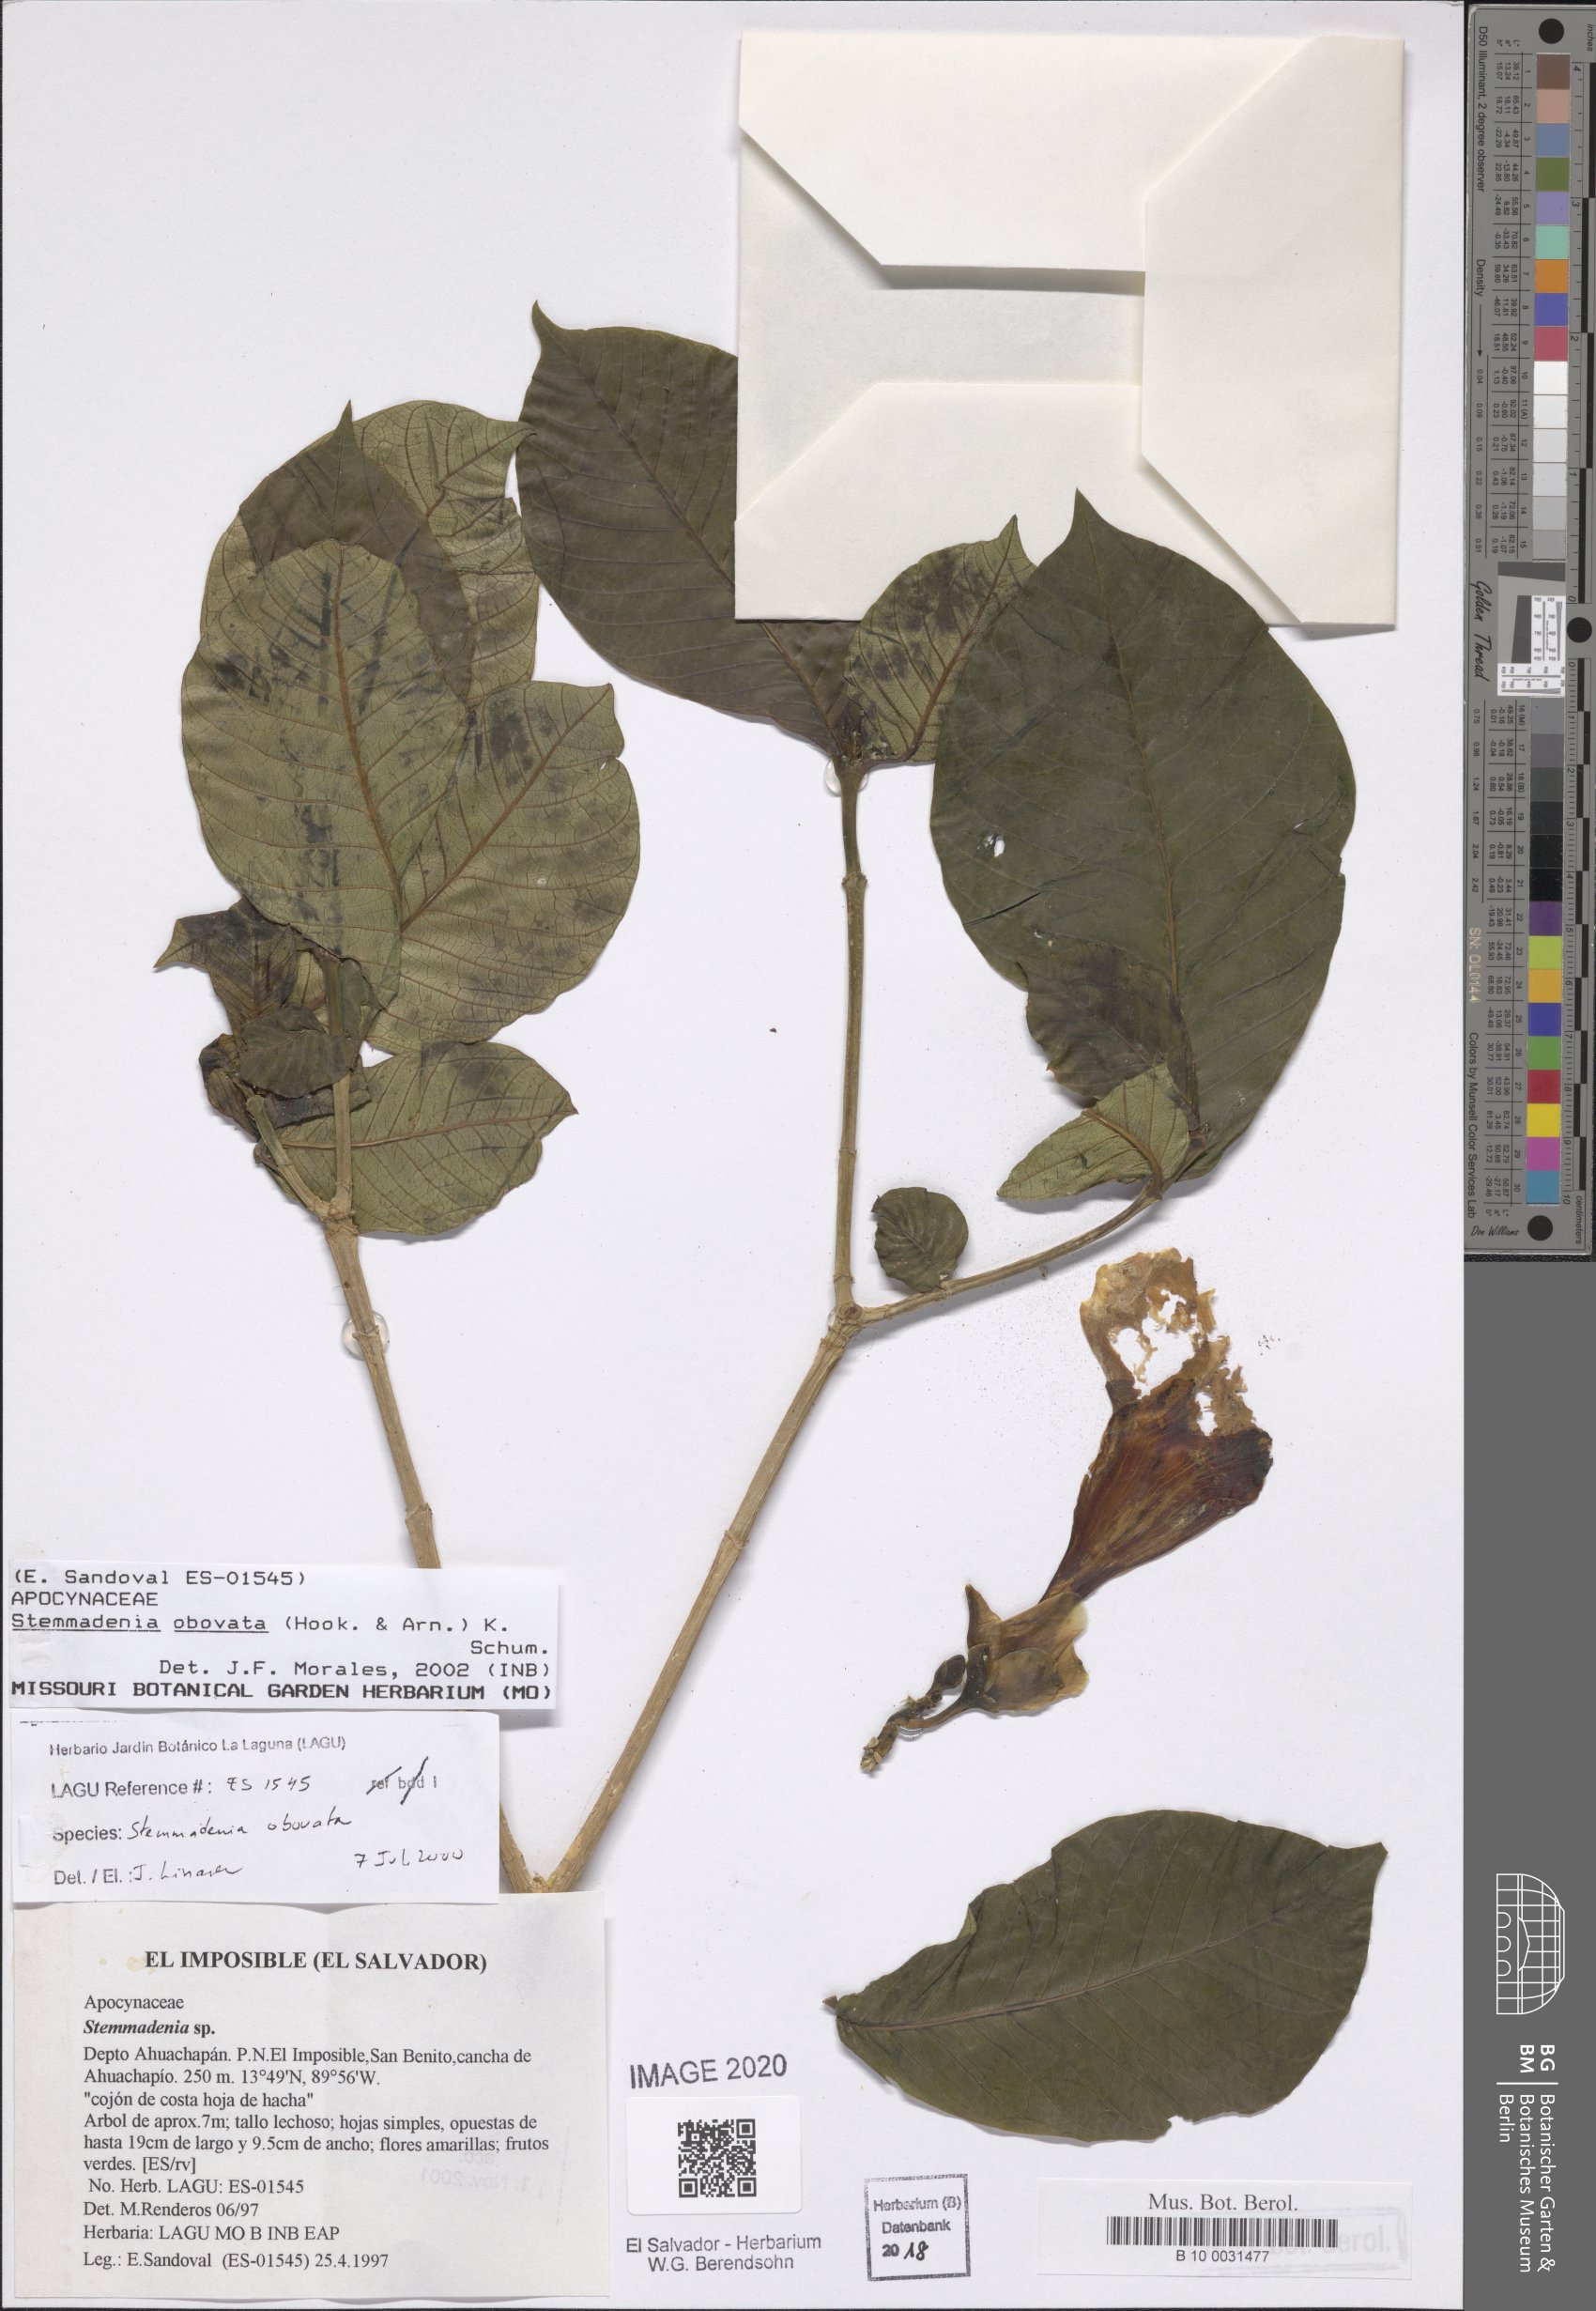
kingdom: Plantae
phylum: Tracheophyta
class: Magnoliopsida
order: Gentianales
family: Apocynaceae
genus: Tabernaemontana
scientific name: Tabernaemontana glabra
